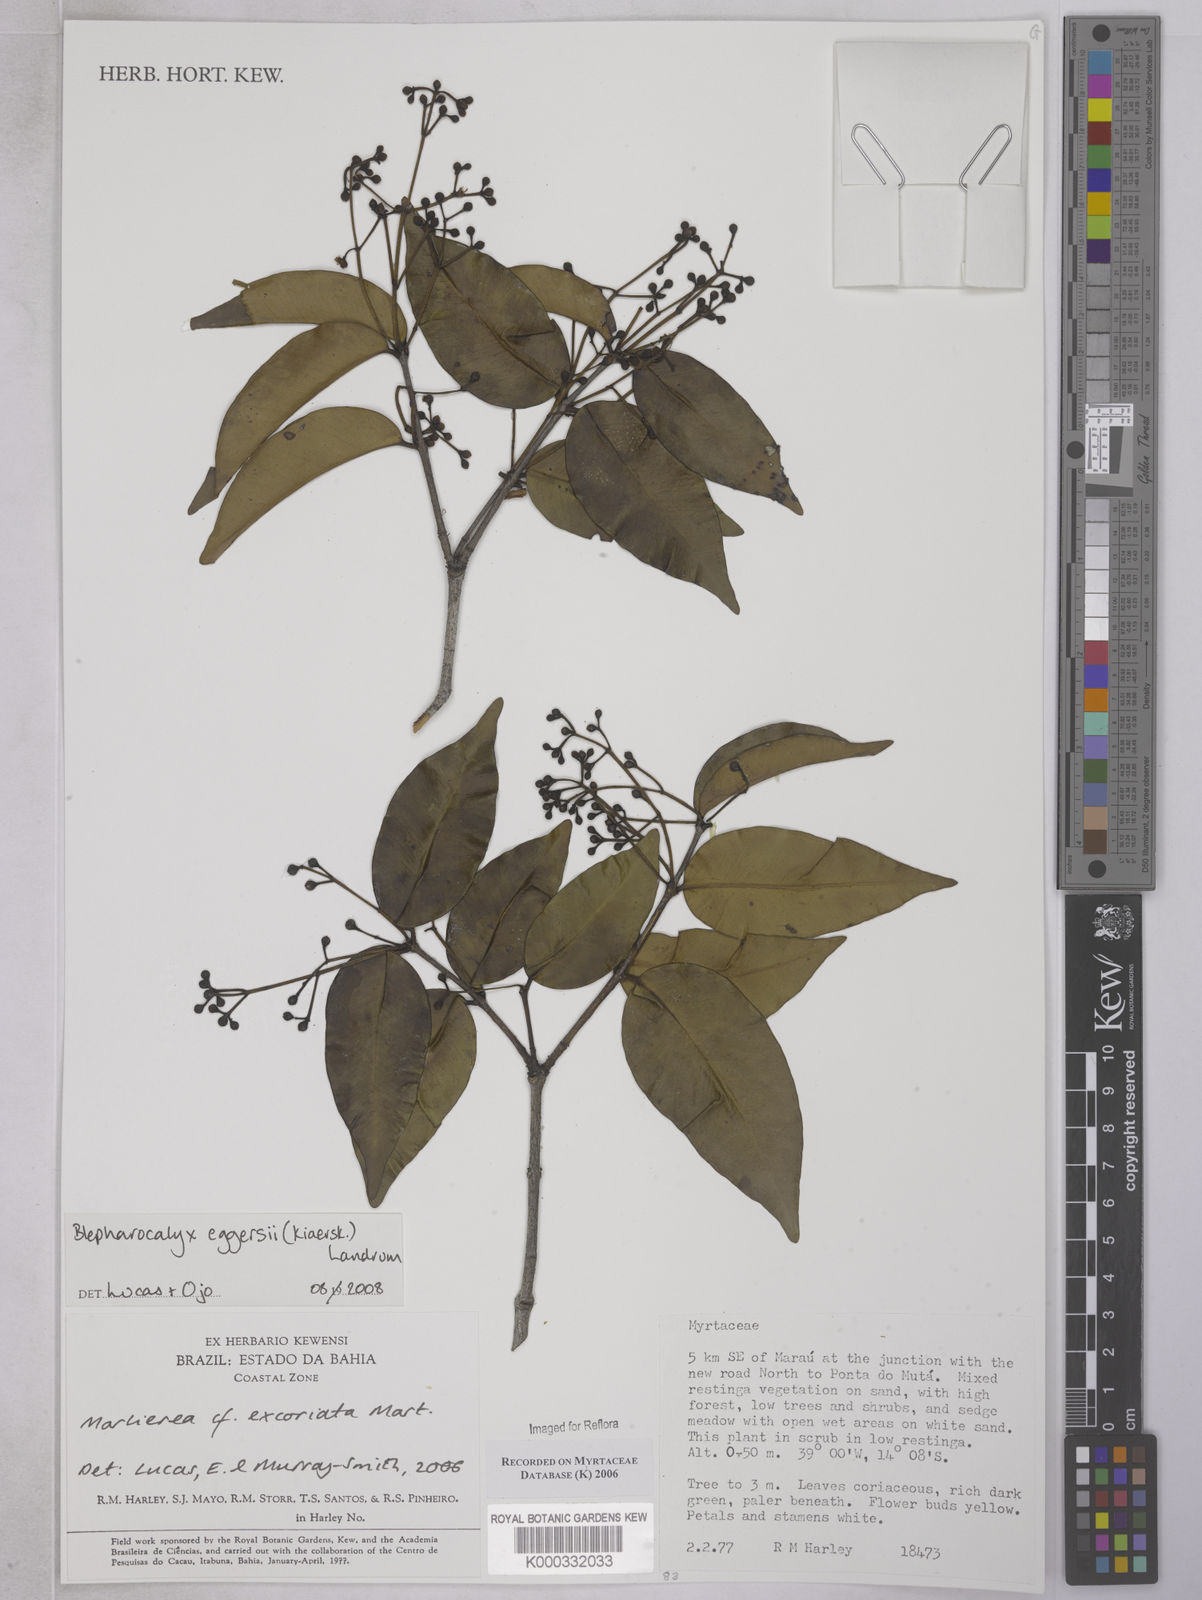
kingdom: Plantae
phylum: Tracheophyta
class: Magnoliopsida
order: Myrtales
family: Myrtaceae
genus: Myrcia
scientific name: Myrcia excoriata
